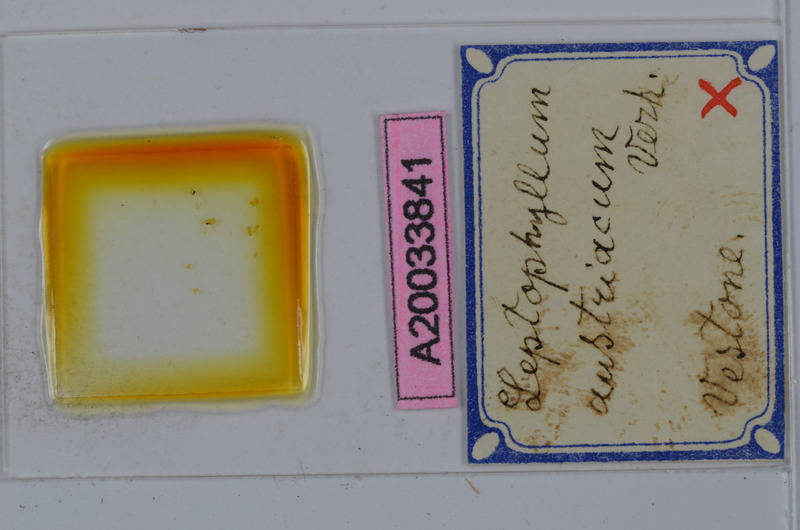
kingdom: Animalia
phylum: Arthropoda
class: Diplopoda
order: Julida
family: Julidae
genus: Enantiulus
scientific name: Enantiulus austriacus
